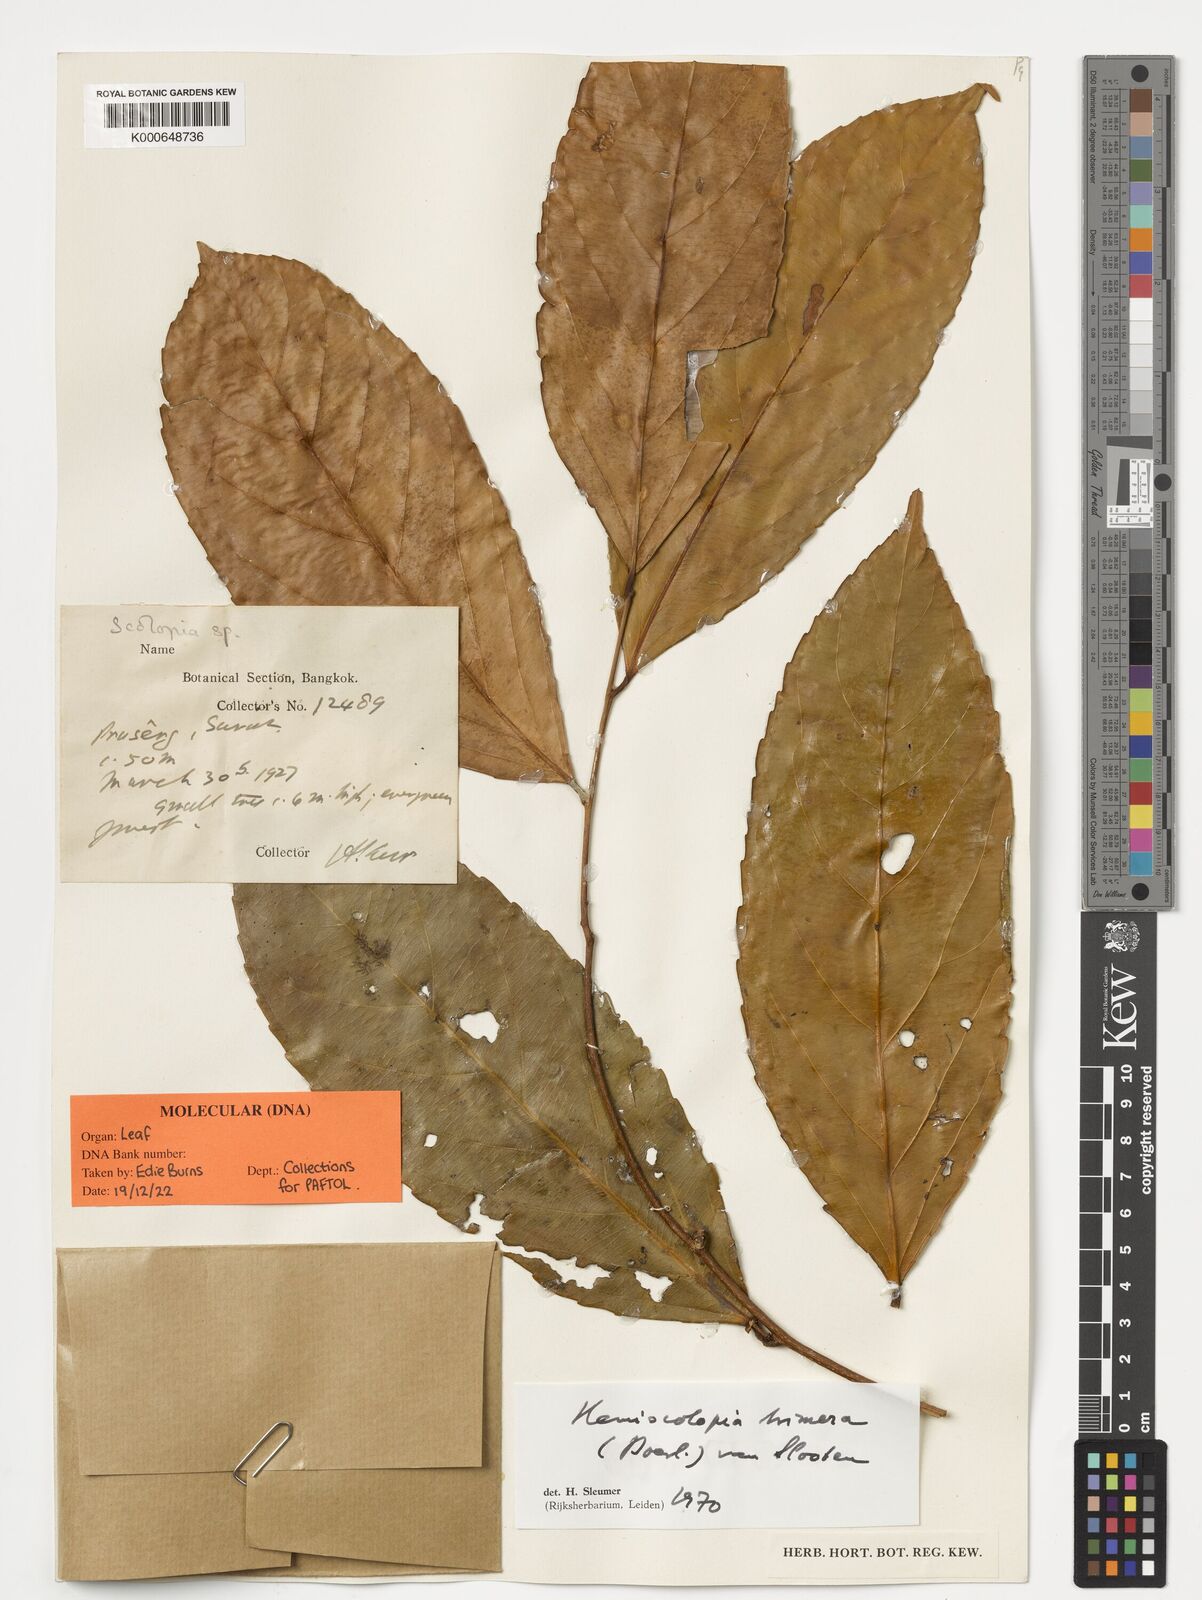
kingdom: Plantae
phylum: Tracheophyta
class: Magnoliopsida
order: Malpighiales
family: Salicaceae
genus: Hemiscolopia
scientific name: Hemiscolopia trimera
